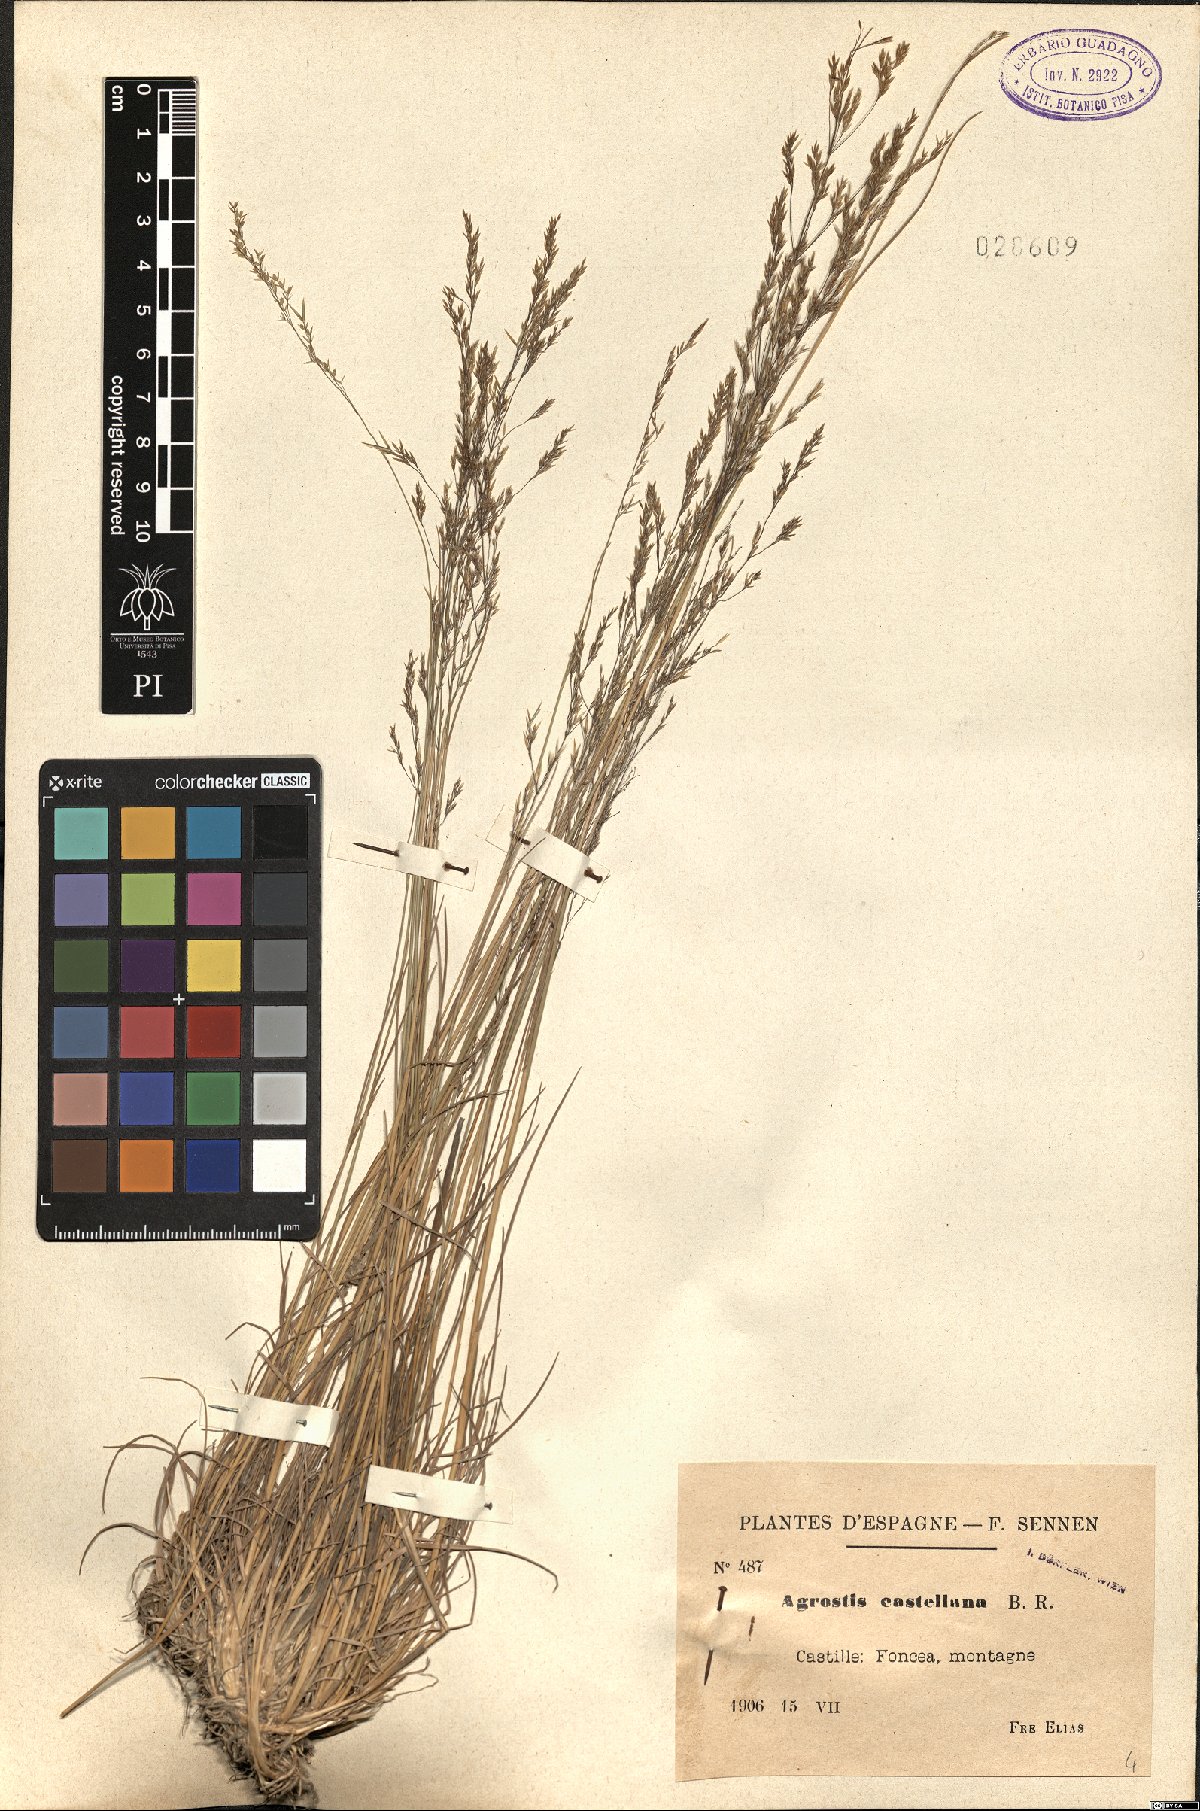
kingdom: Plantae
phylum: Tracheophyta
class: Liliopsida
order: Poales
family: Poaceae
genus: Agrostis
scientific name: Agrostis castellana
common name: Highland bent
